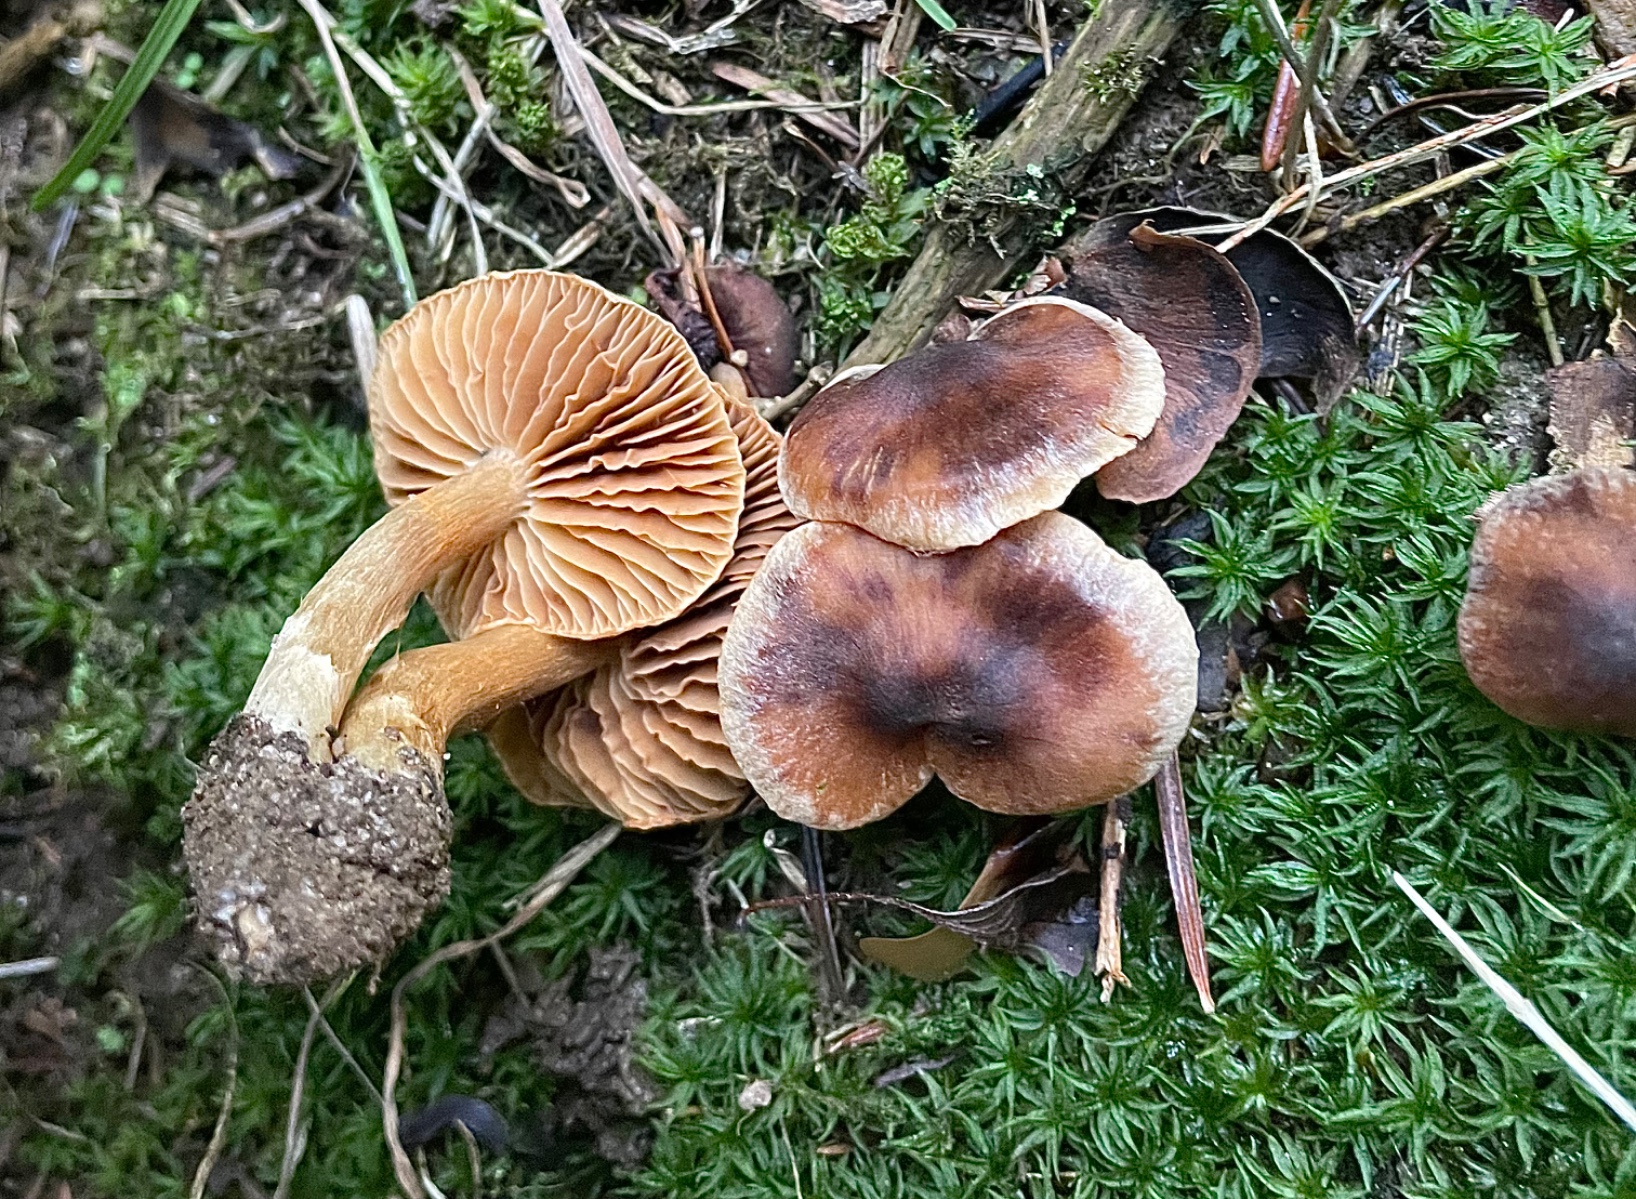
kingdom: Fungi
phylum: Basidiomycota
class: Agaricomycetes
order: Agaricales
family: Cortinariaceae
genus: Cortinarius
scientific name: Cortinarius
